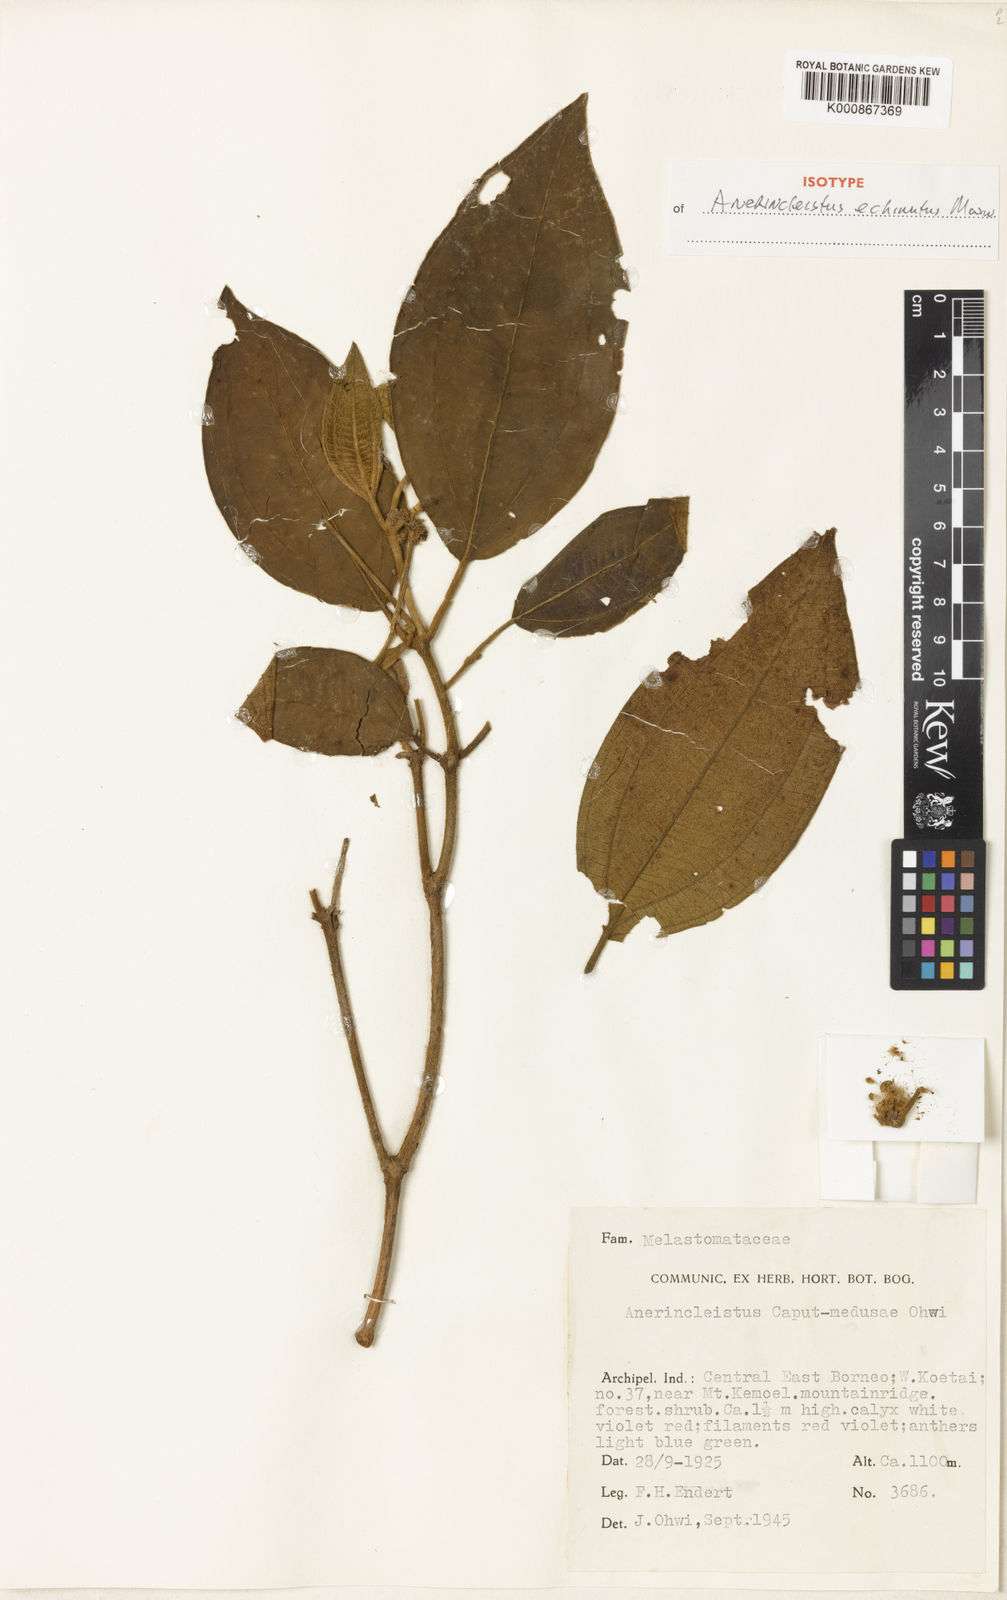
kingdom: Plantae
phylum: Tracheophyta
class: Magnoliopsida
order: Myrtales
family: Melastomataceae
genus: Anerincleistus
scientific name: Anerincleistus echinatus
